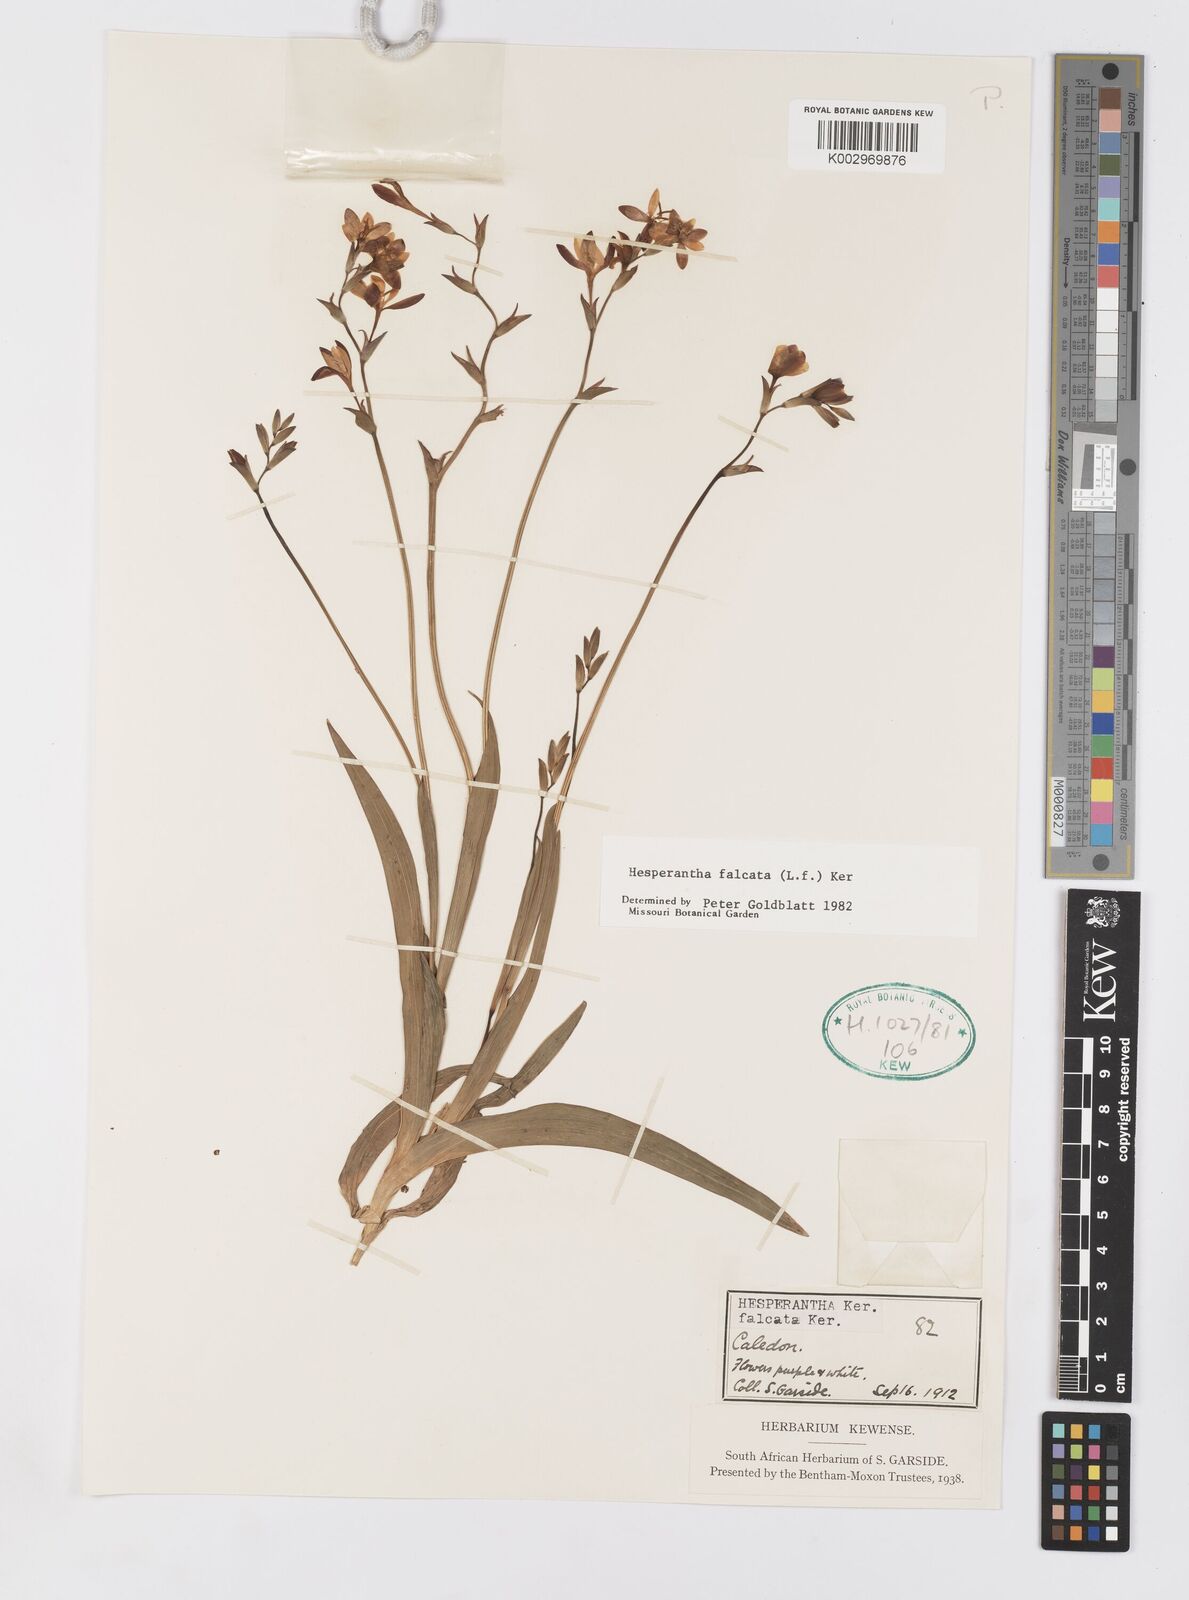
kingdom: Plantae
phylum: Tracheophyta
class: Liliopsida
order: Asparagales
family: Iridaceae
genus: Hesperantha
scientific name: Hesperantha falcata
